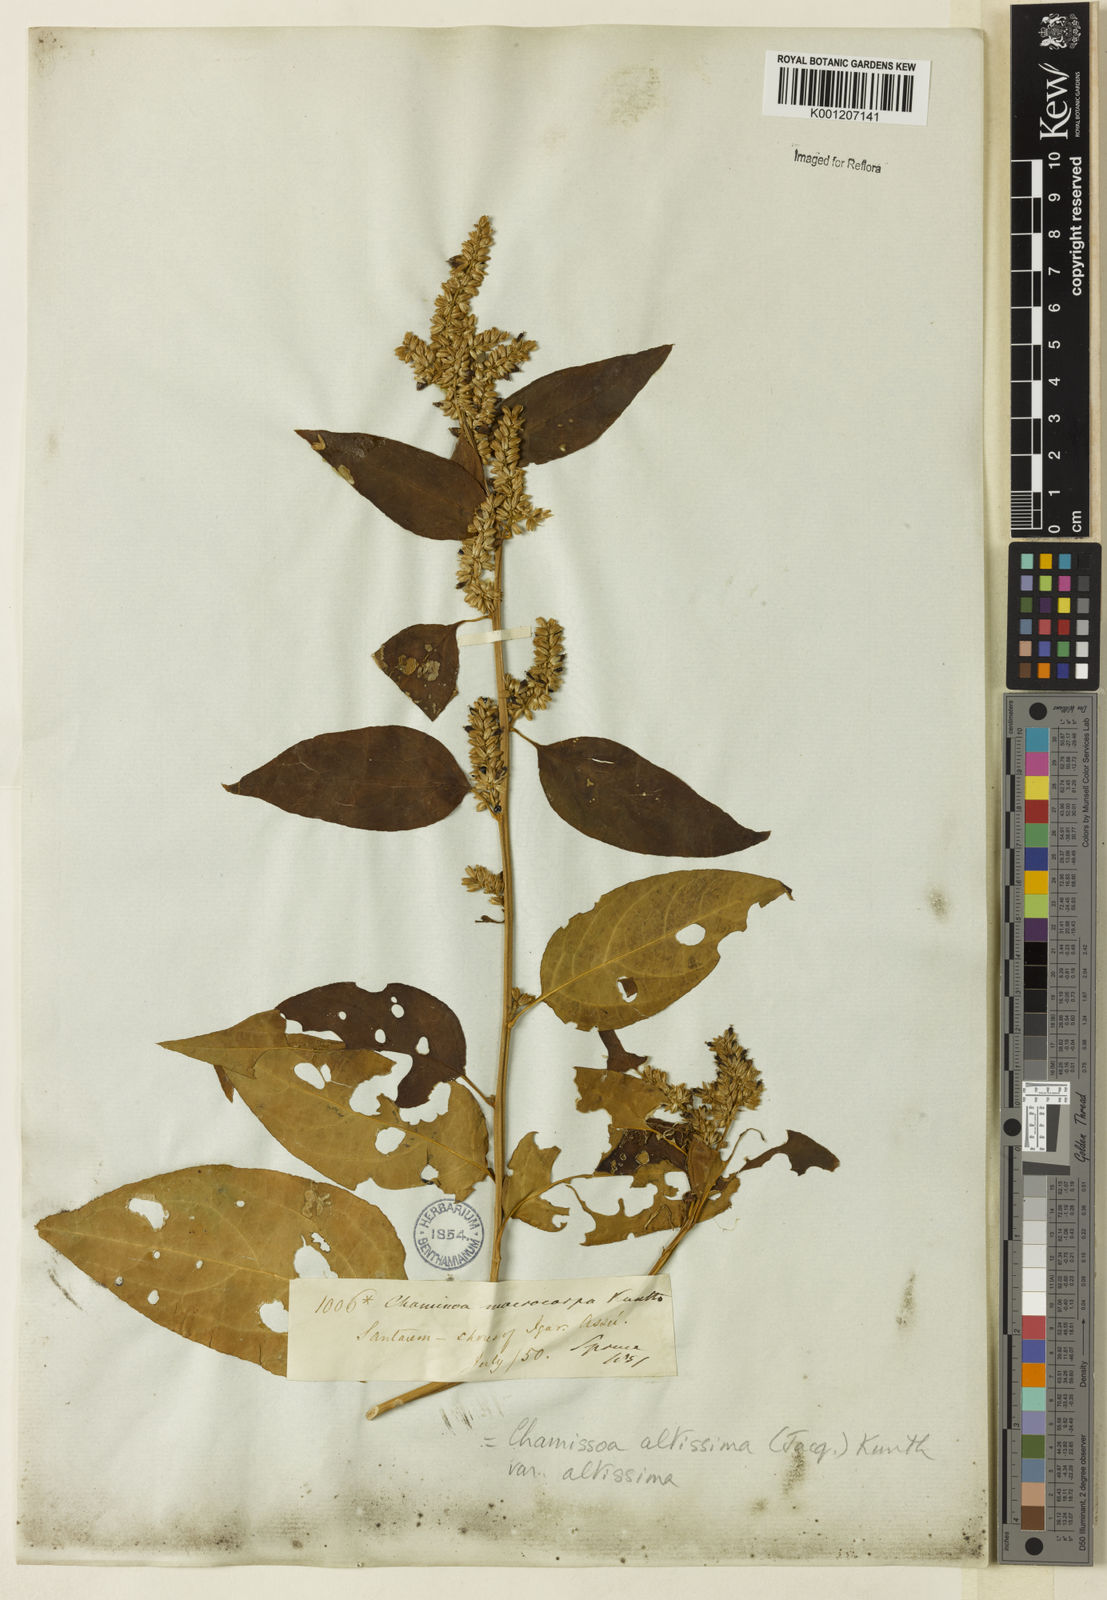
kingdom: Plantae
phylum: Tracheophyta
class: Magnoliopsida
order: Caryophyllales
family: Amaranthaceae
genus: Chamissoa
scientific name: Chamissoa altissima
